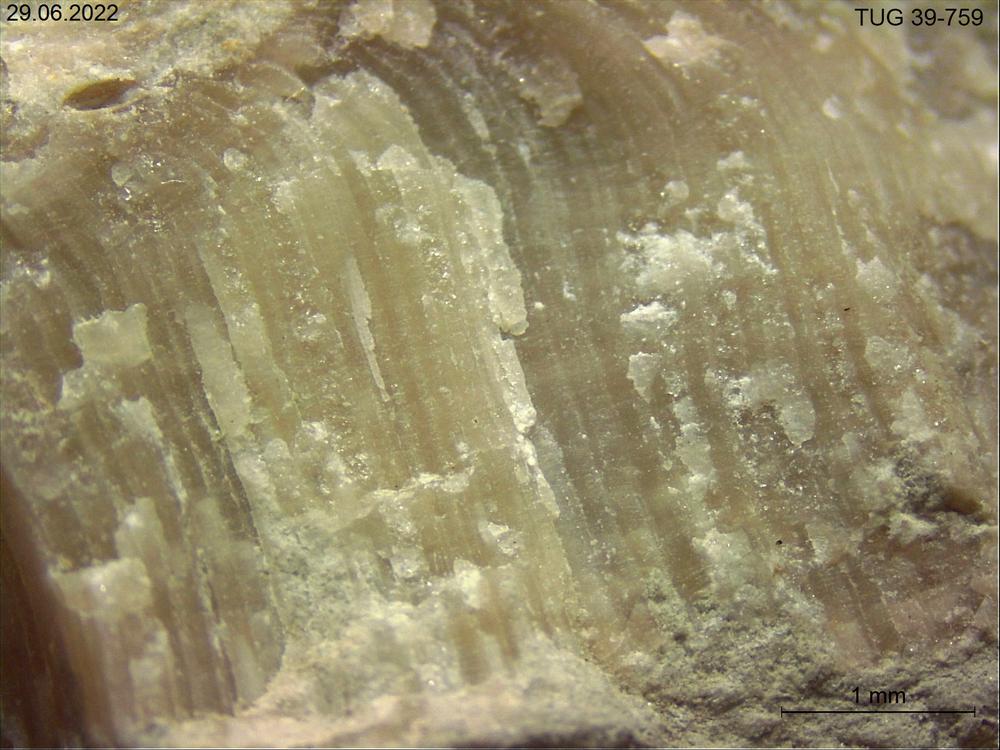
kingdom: Animalia
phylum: Bryozoa
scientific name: Bryozoa
